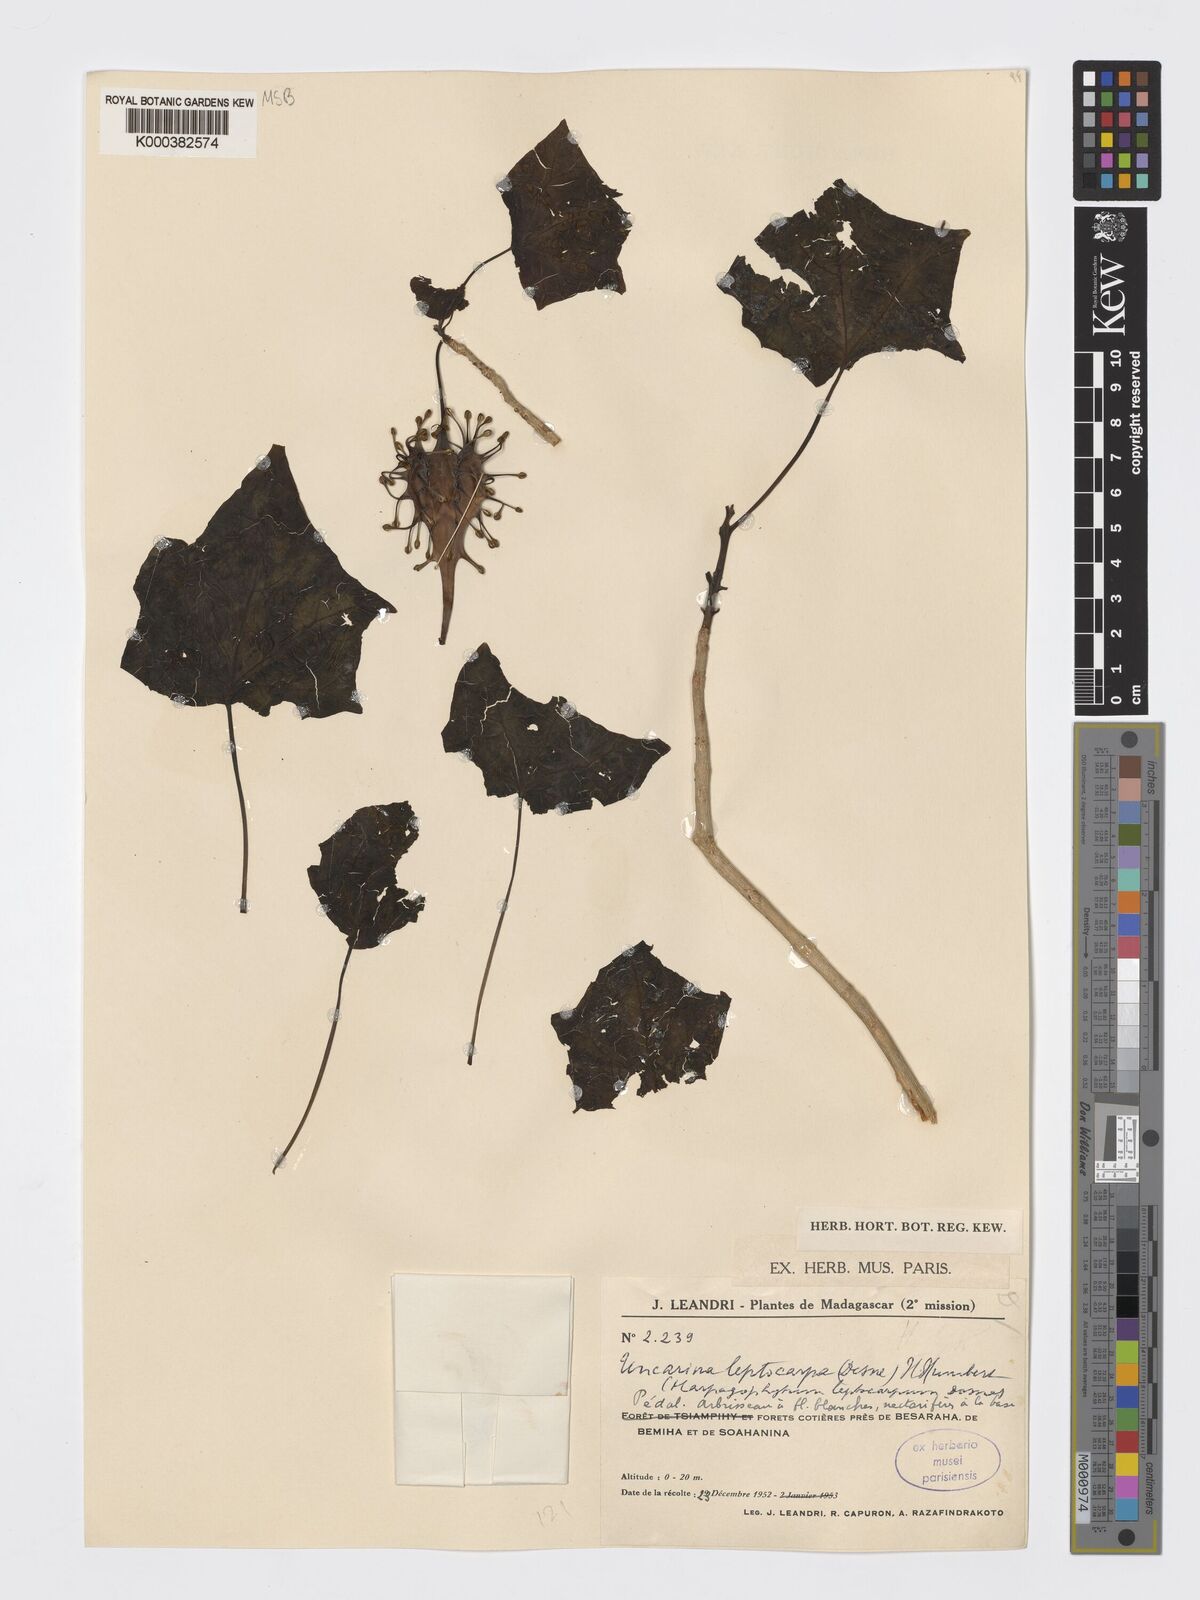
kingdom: Plantae
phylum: Tracheophyta
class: Magnoliopsida
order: Lamiales
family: Pedaliaceae
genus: Uncarina
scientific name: Uncarina leptocarpa
